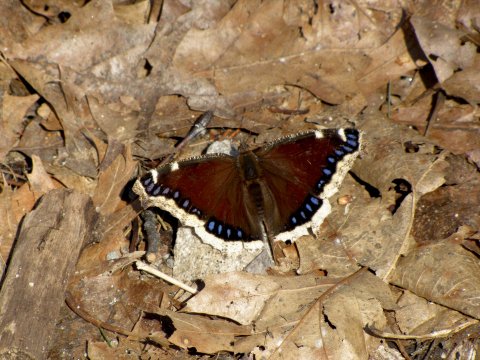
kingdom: Animalia
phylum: Arthropoda
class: Insecta
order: Lepidoptera
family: Nymphalidae
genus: Nymphalis
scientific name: Nymphalis antiopa
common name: Mourning Cloak
